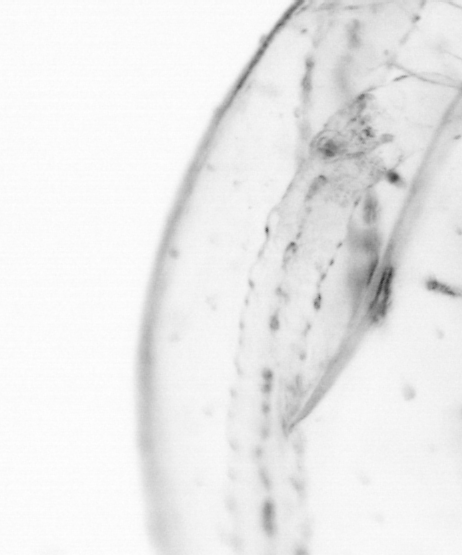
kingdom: Animalia
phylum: Chaetognatha
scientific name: Chaetognatha
